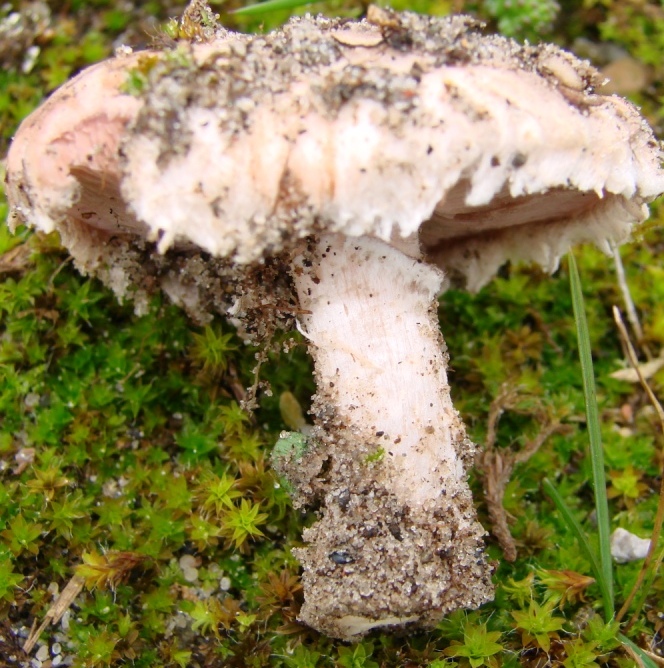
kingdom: Fungi
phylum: Basidiomycota
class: Agaricomycetes
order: Agaricales
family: Agaricaceae
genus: Agaricus
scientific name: Agaricus devoniensis
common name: klit-champignon
